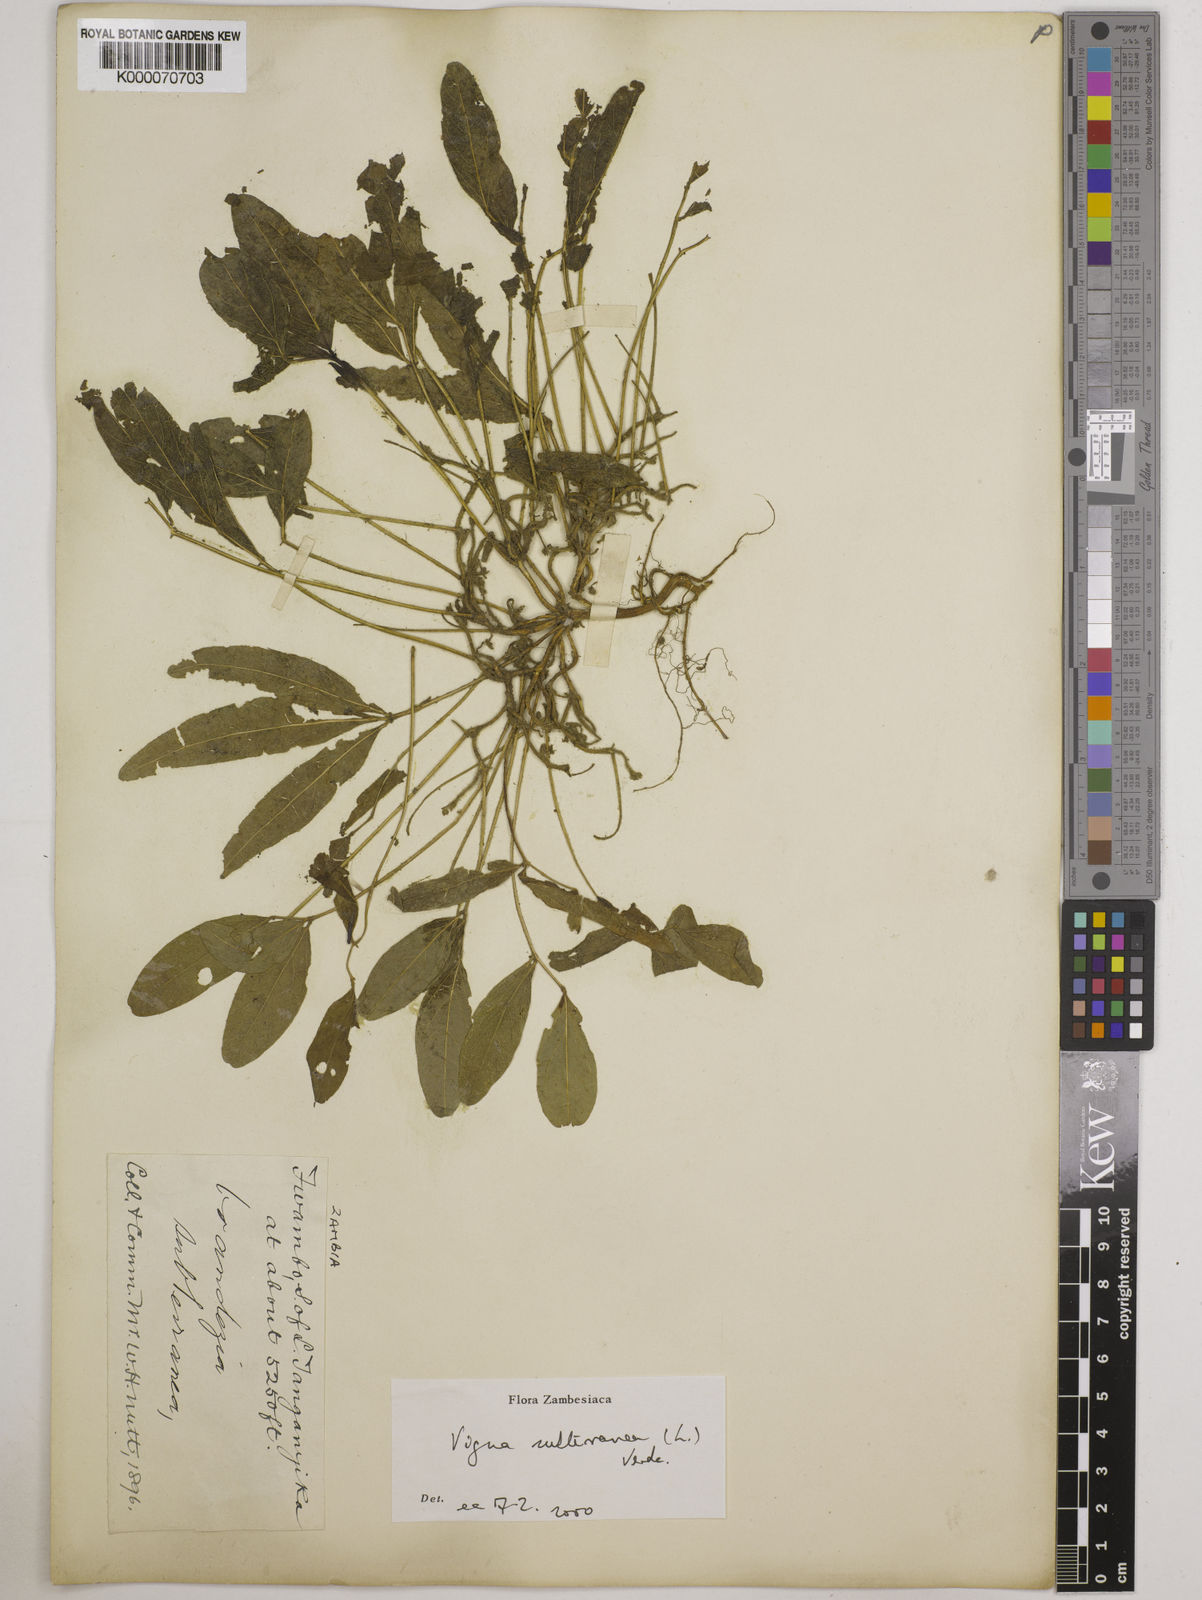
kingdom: Plantae
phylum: Tracheophyta
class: Magnoliopsida
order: Fabales
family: Fabaceae
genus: Vigna
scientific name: Vigna subterranea
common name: Bambara groundnut
